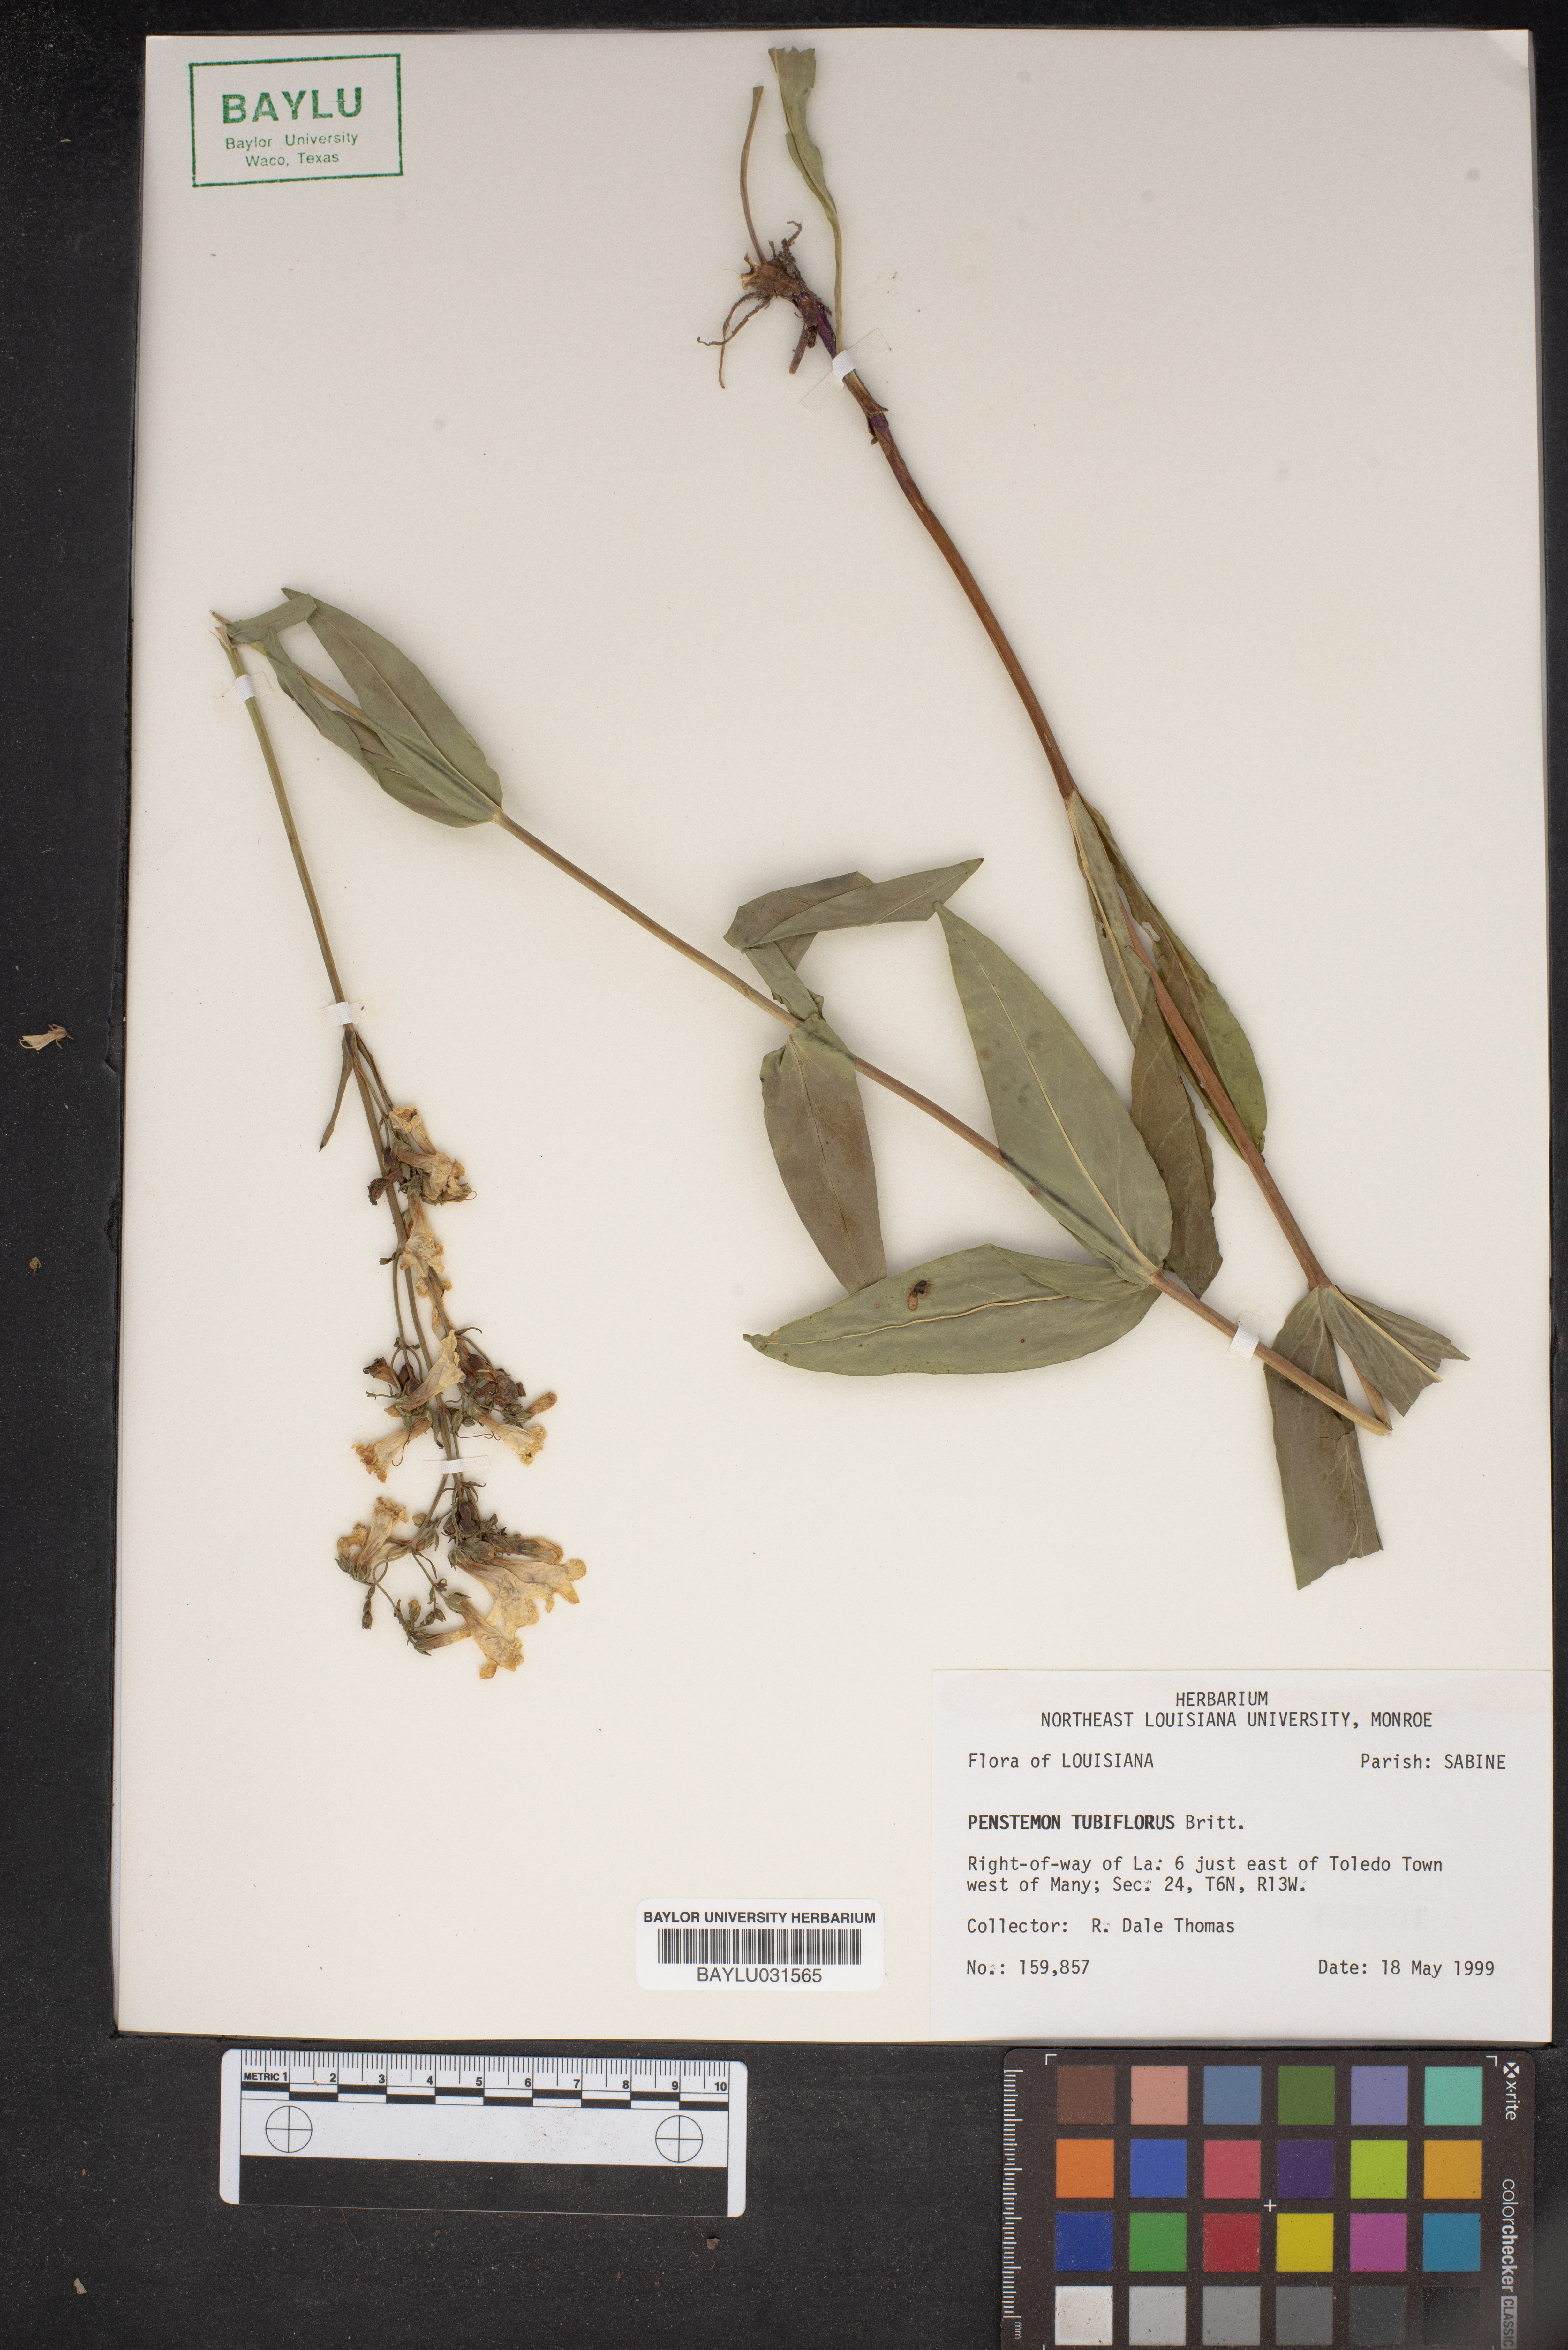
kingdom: Plantae
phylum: Tracheophyta
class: Magnoliopsida
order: Lamiales
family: Plantaginaceae
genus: Penstemon
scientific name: Penstemon tubaeflorus
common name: White wand beardtongue
